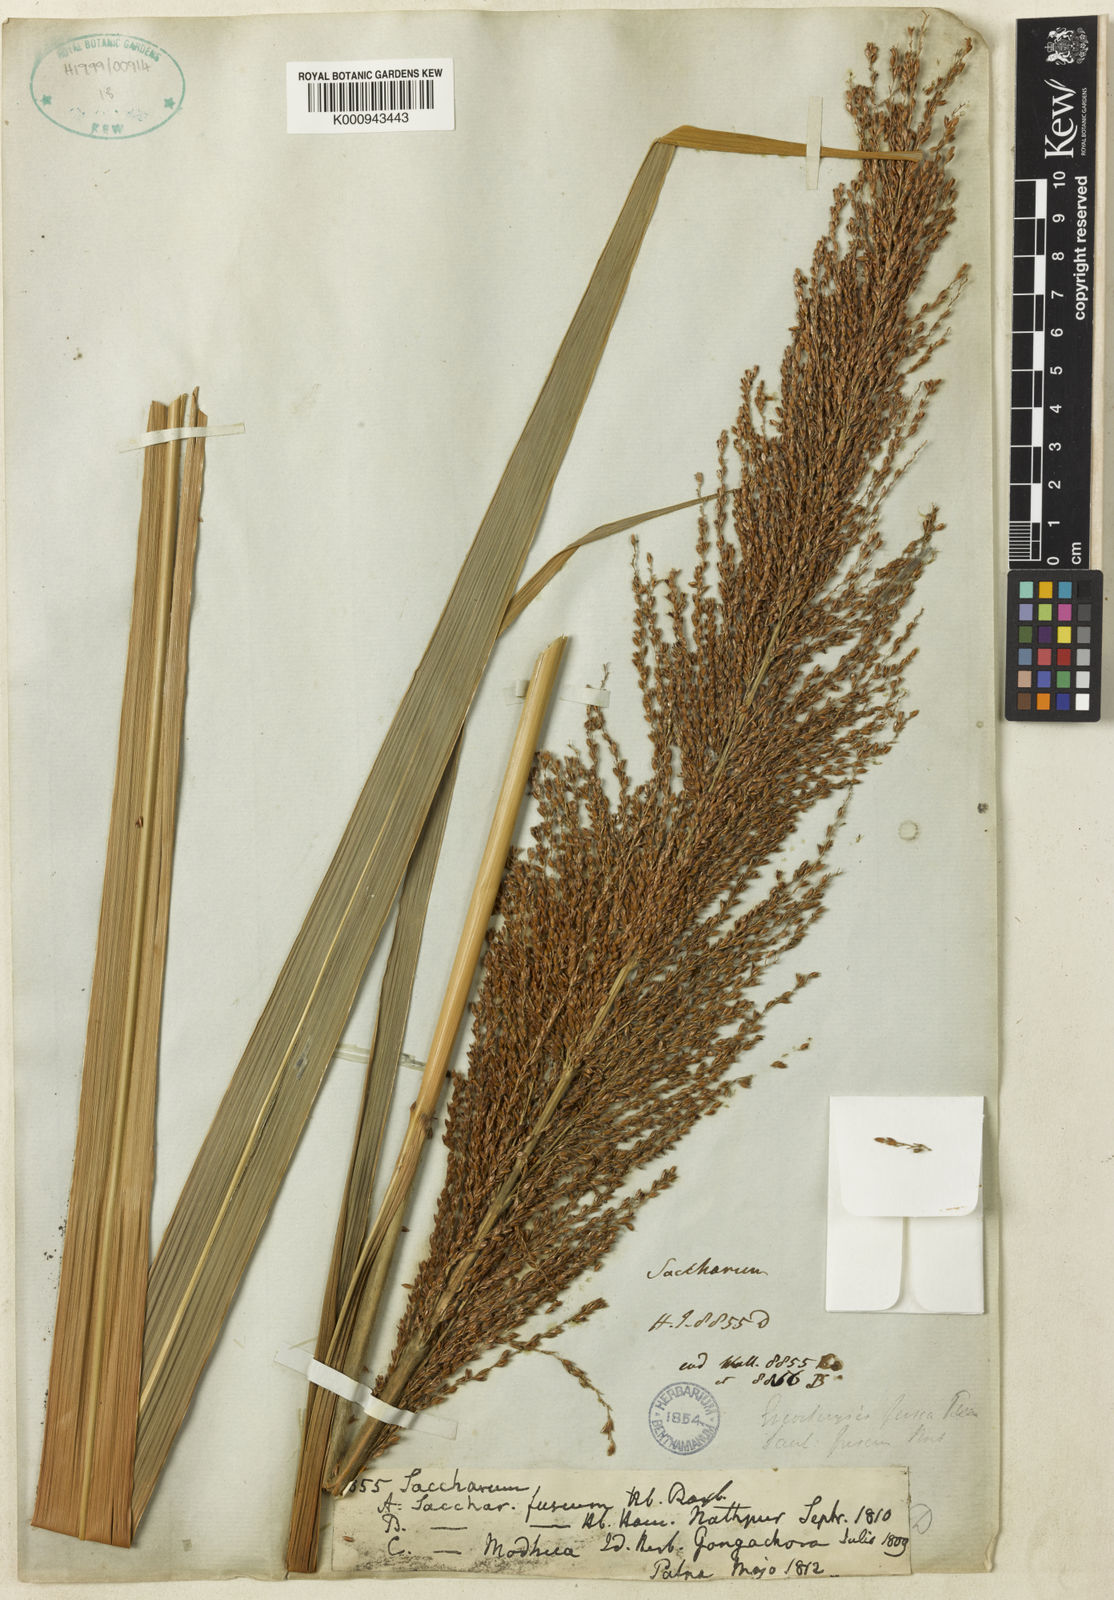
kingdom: Plantae
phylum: Tracheophyta
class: Liliopsida
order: Poales
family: Poaceae
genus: Miscanthus
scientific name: Miscanthus fuscus
